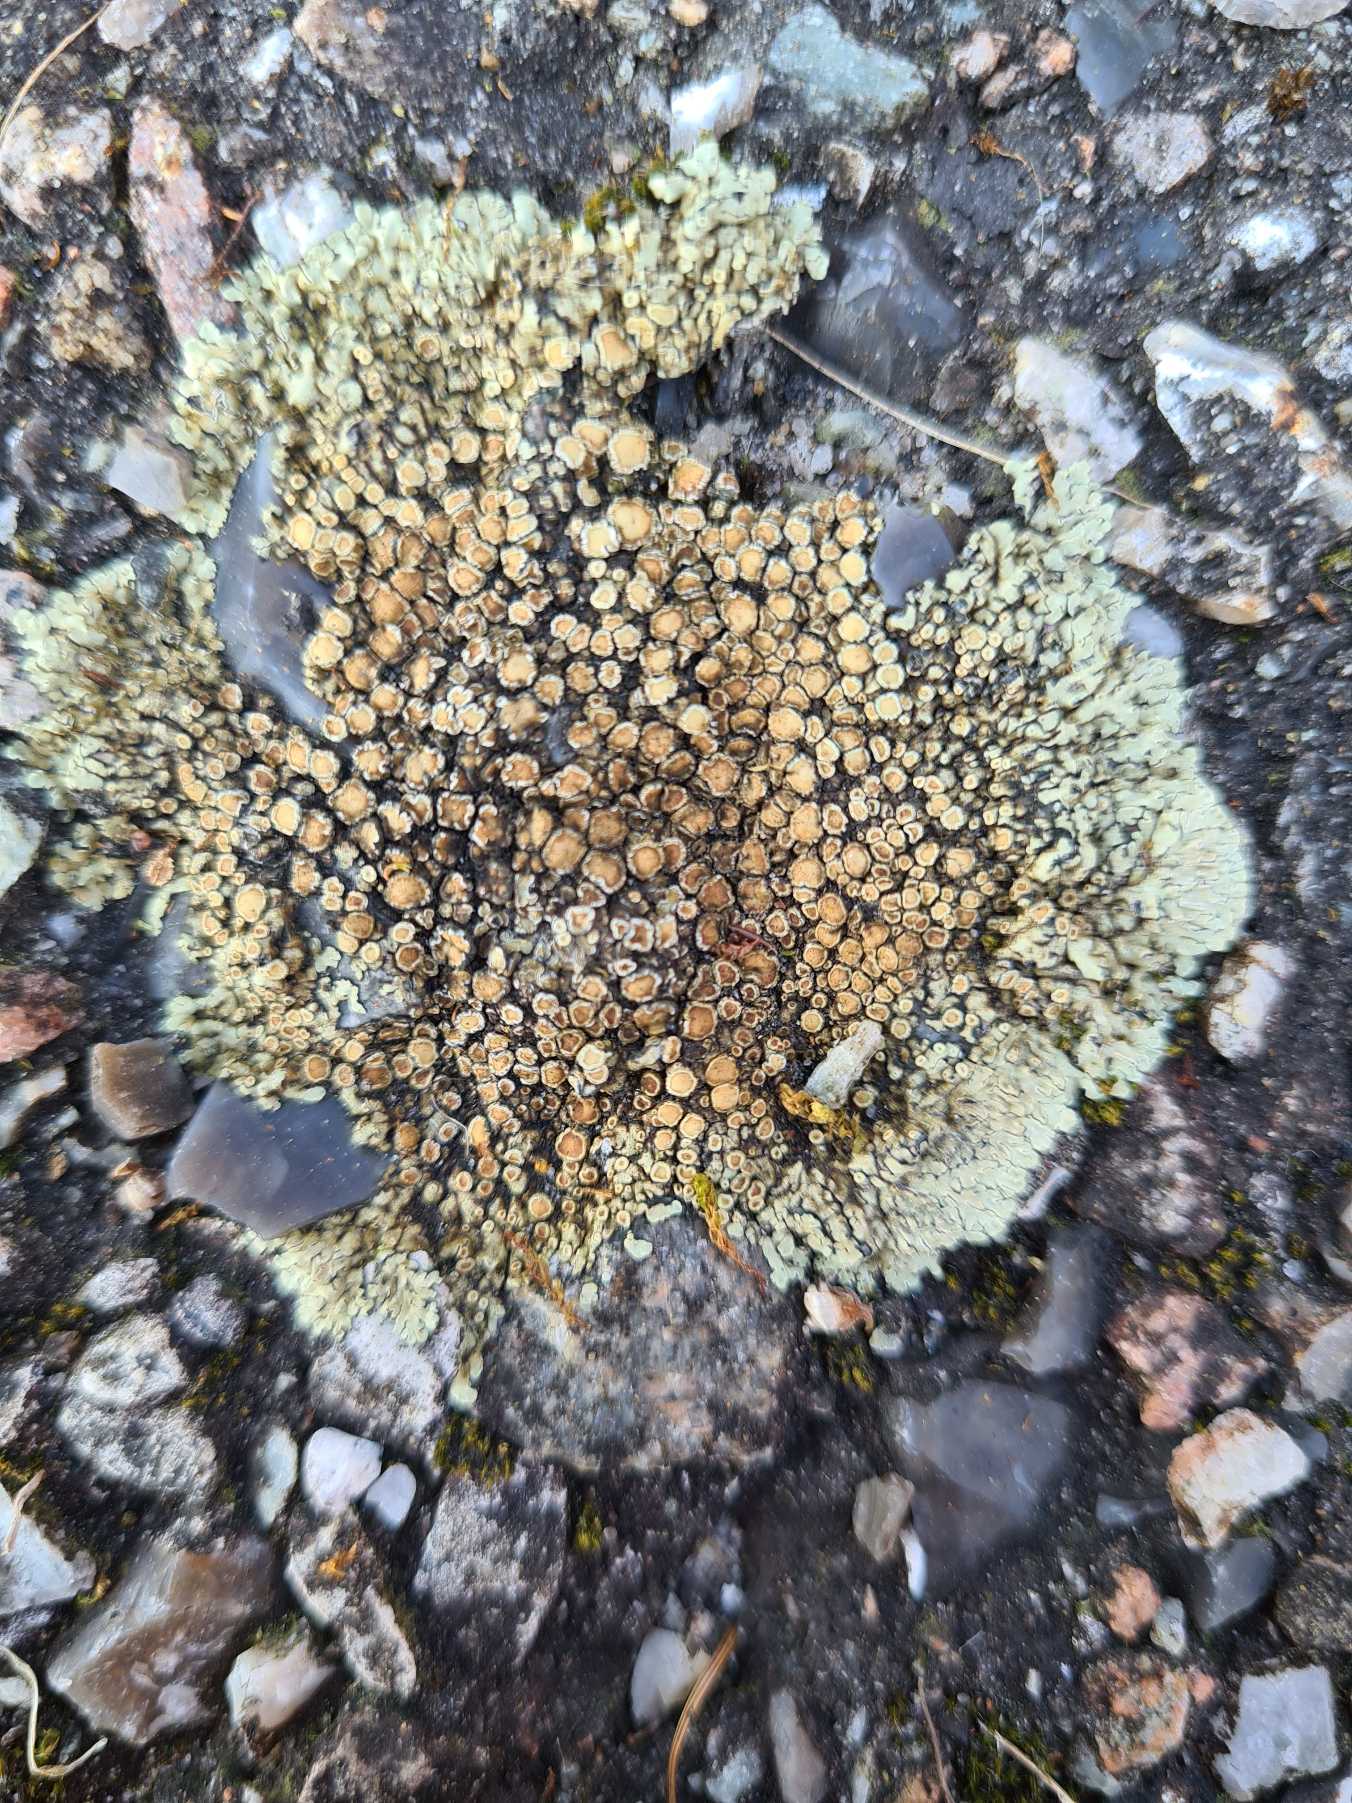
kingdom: Fungi
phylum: Ascomycota
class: Lecanoromycetes
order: Lecanorales
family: Lecanoraceae
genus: Protoparmeliopsis
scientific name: Protoparmeliopsis muralis
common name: Randfliget kantskivelav
